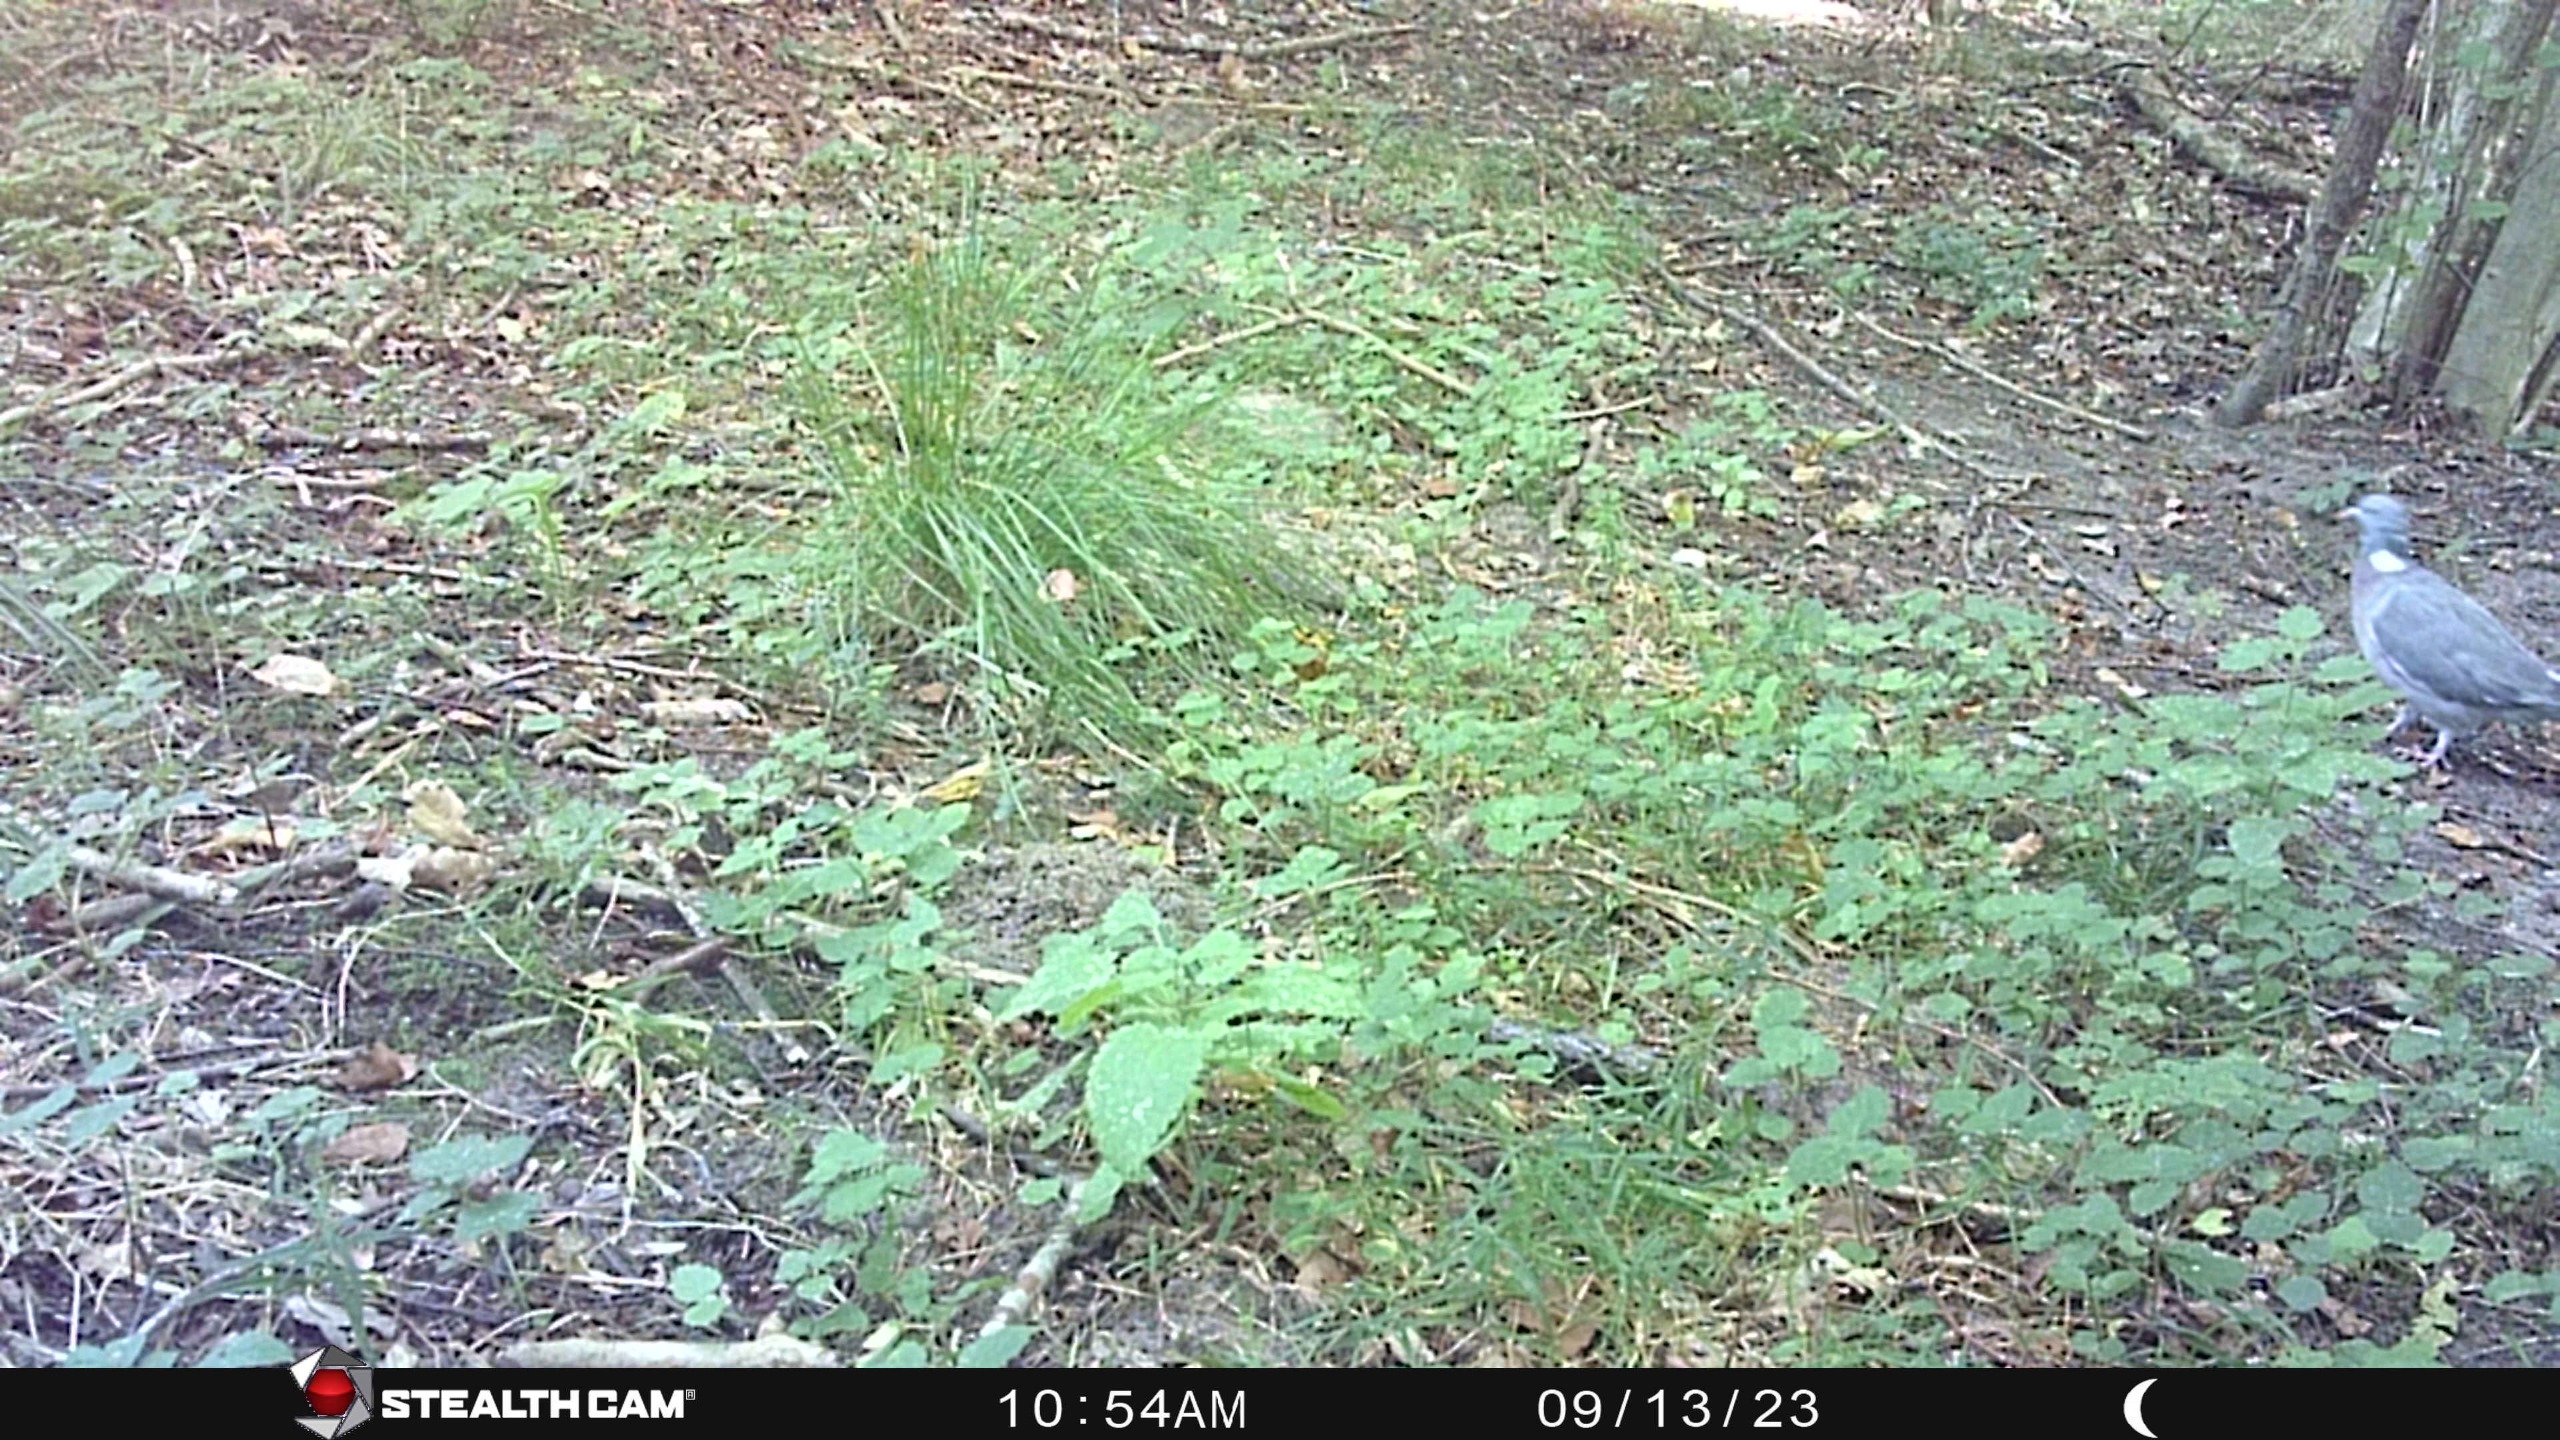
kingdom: Animalia
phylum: Chordata
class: Aves
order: Columbiformes
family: Columbidae
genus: Columba
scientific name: Columba palumbus
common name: Ringdue
